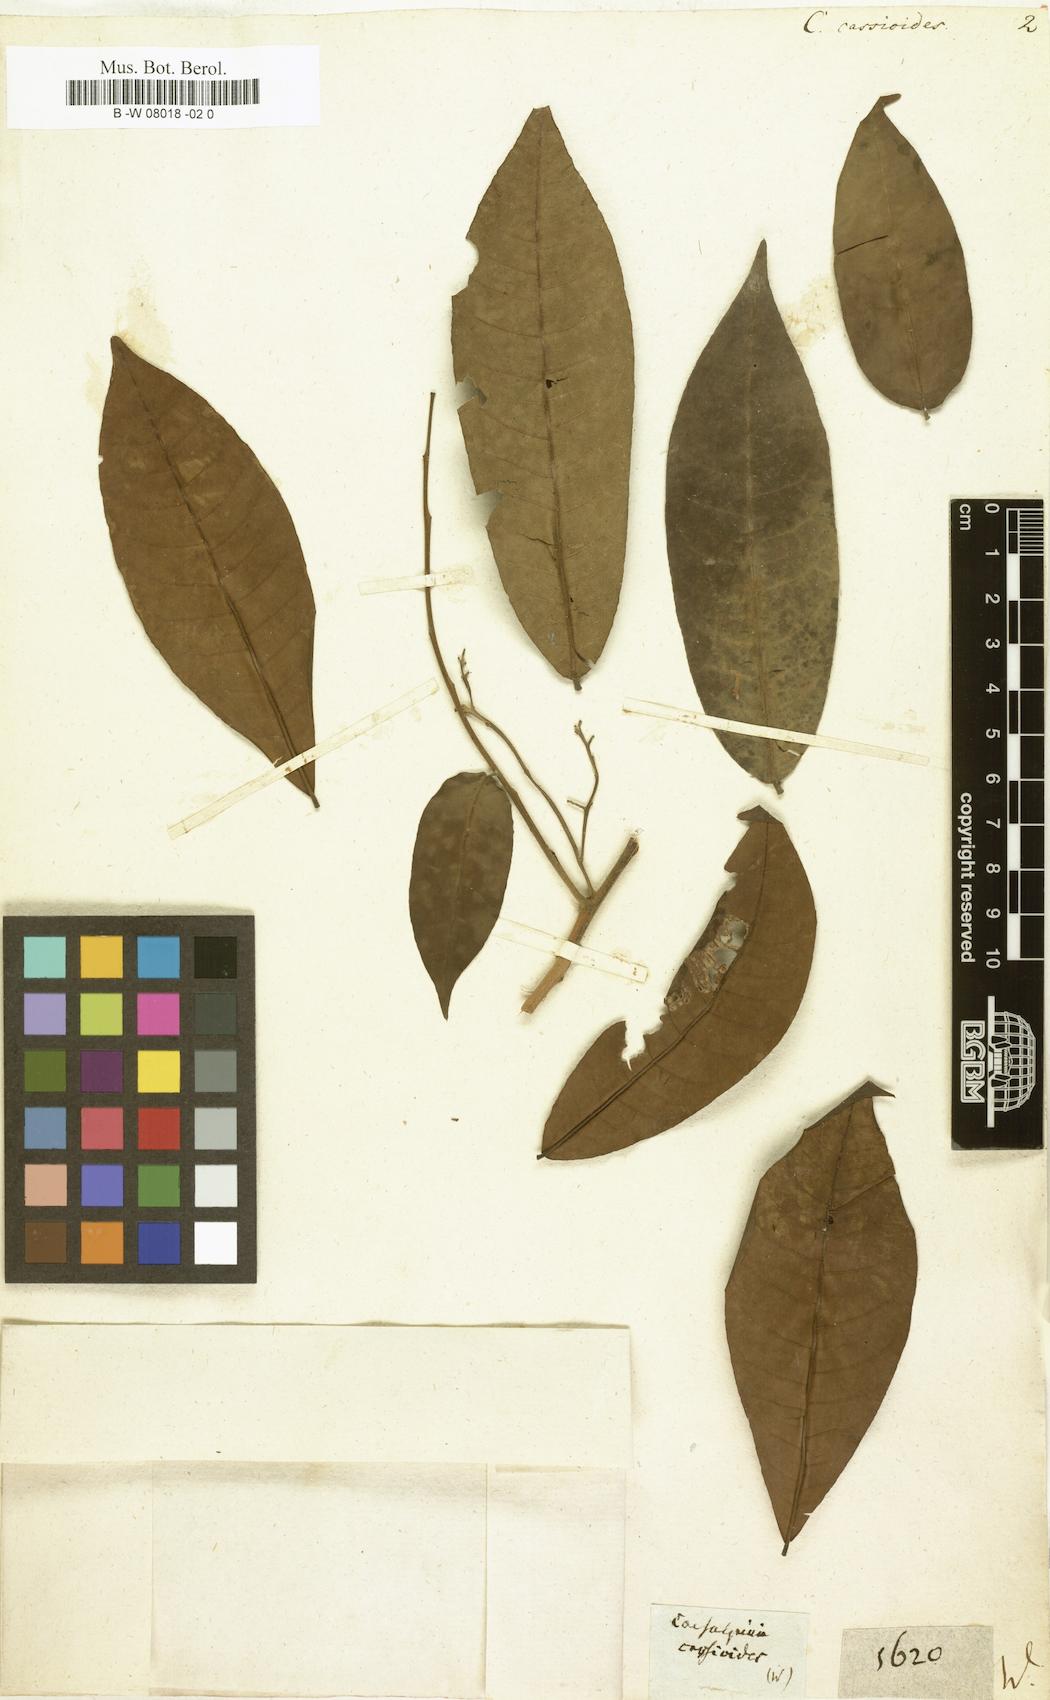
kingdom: Plantae
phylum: Tracheophyta
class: Magnoliopsida
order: Fabales
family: Fabaceae
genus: Caesalpinia
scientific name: Caesalpinia cassioides
